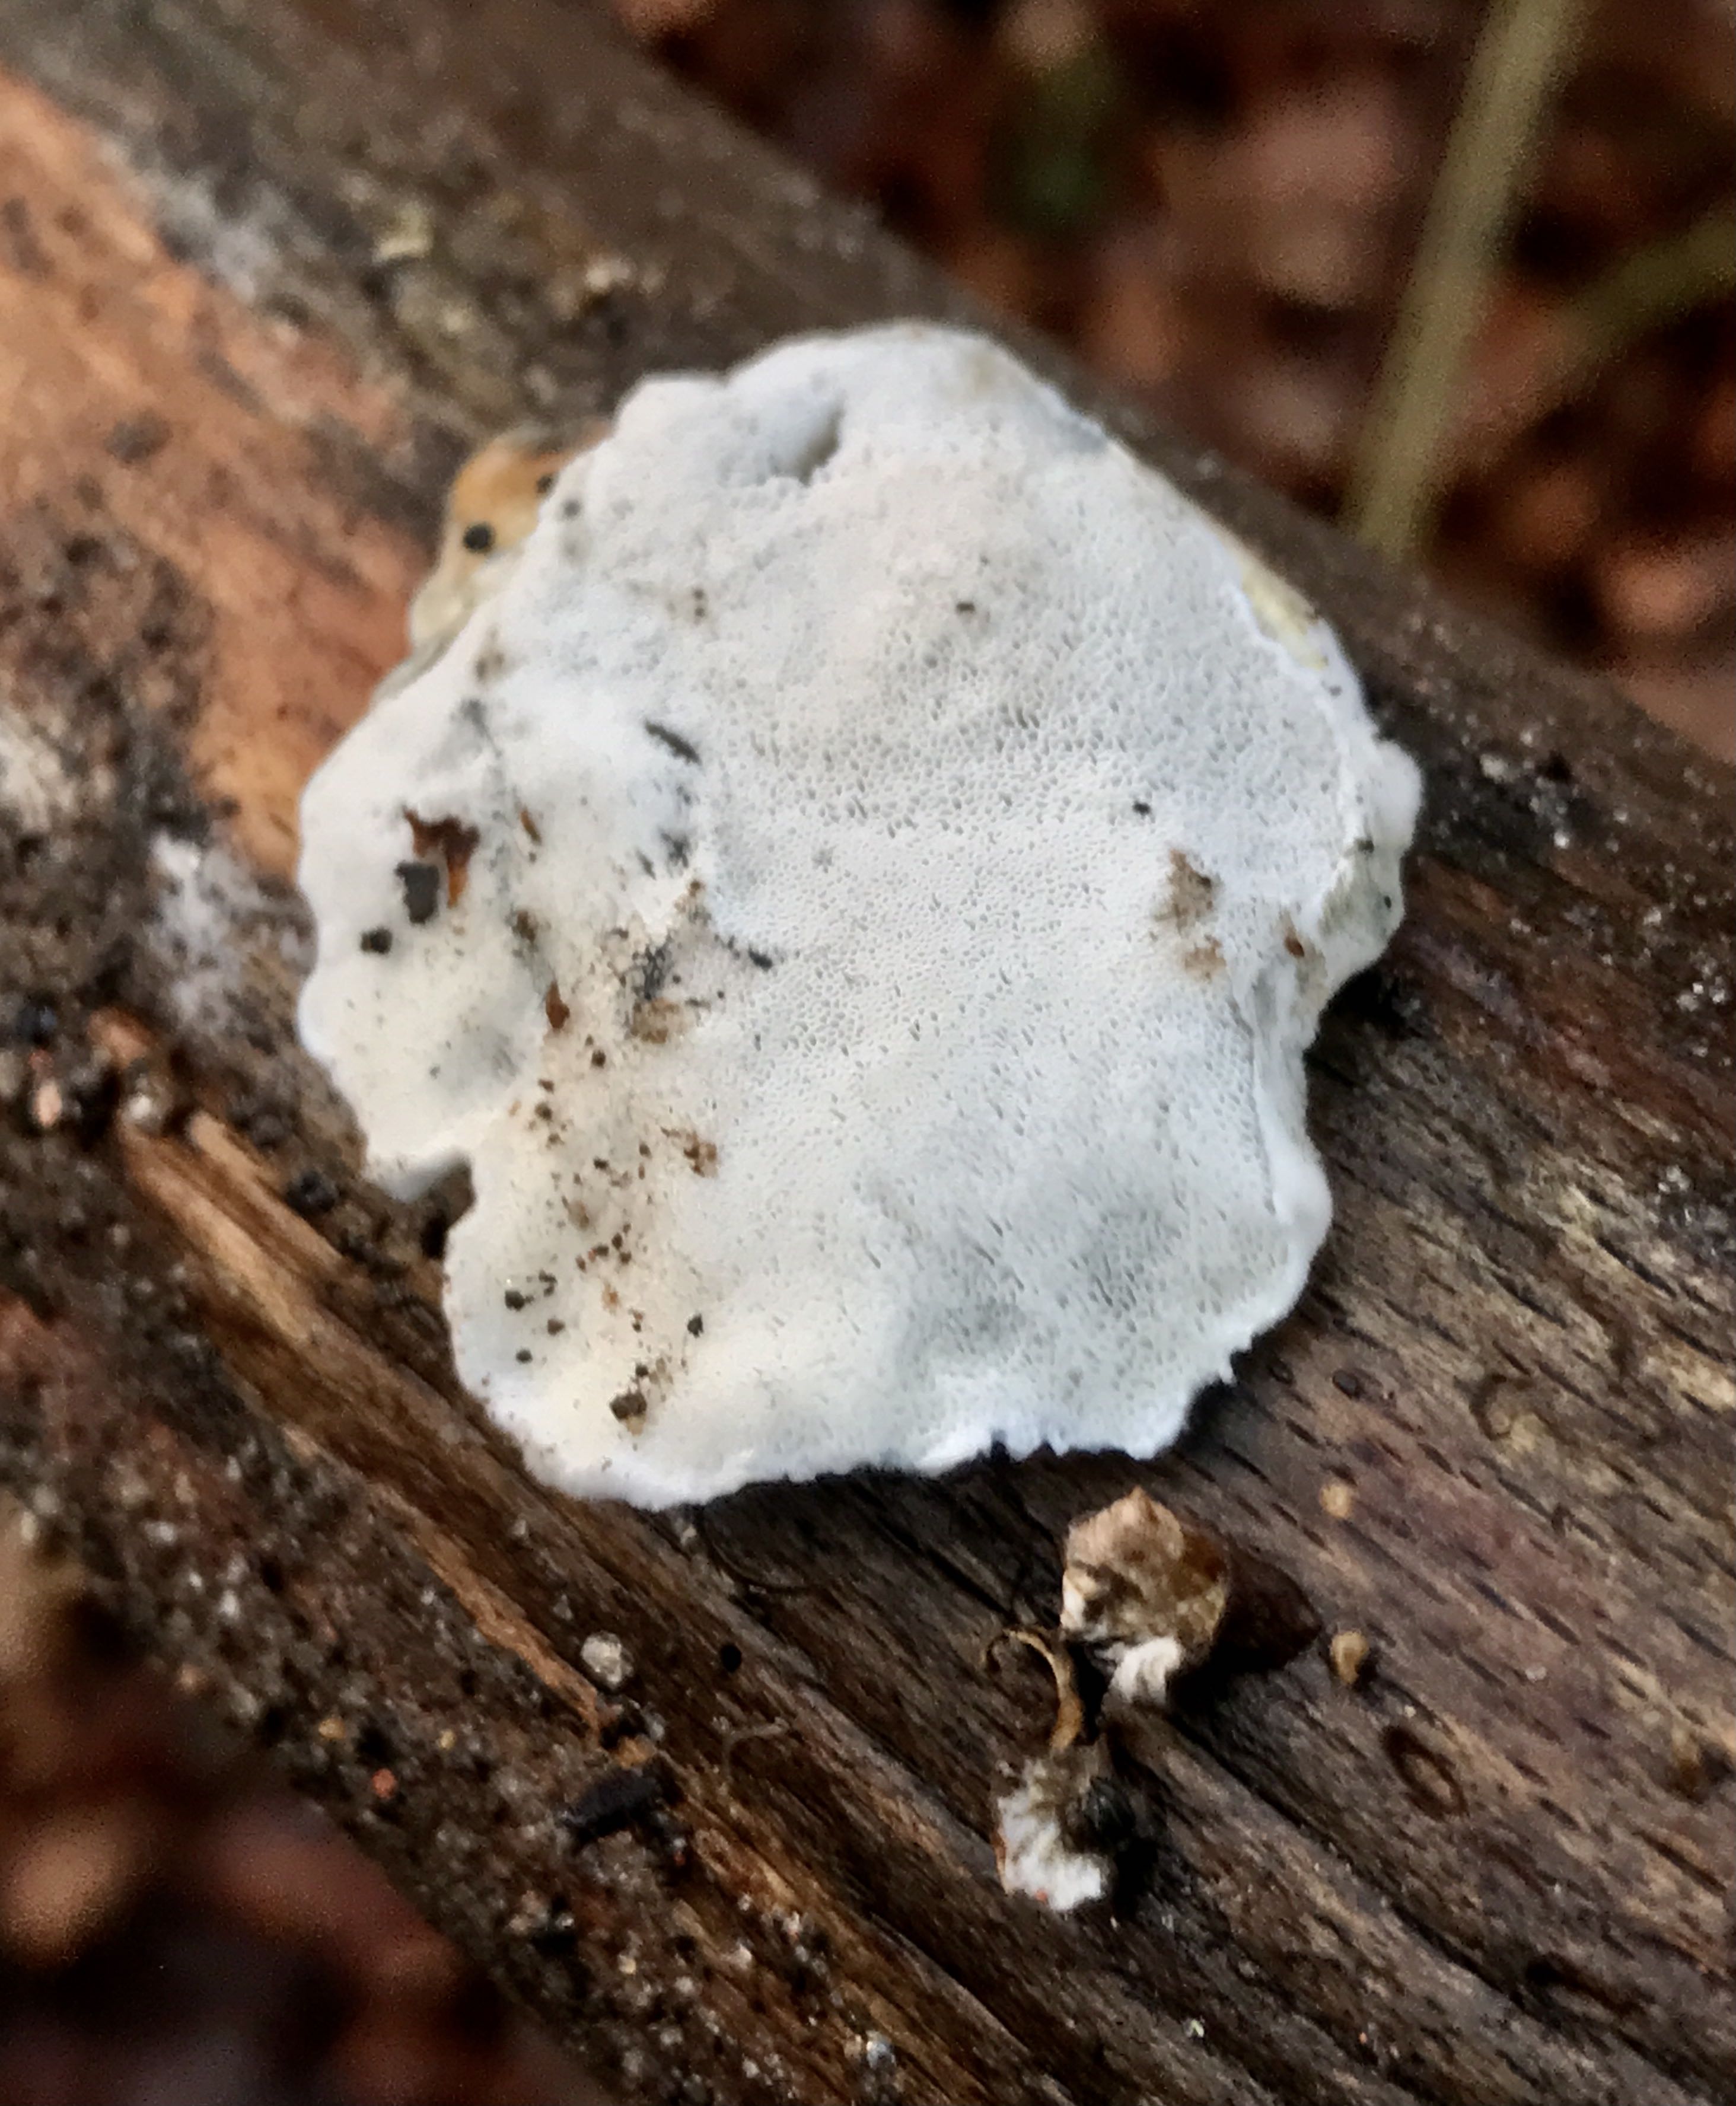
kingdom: Fungi
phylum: Basidiomycota
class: Agaricomycetes
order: Polyporales
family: Incrustoporiaceae
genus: Skeletocutis
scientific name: Skeletocutis nemoralis
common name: stor krystalporesvamp
